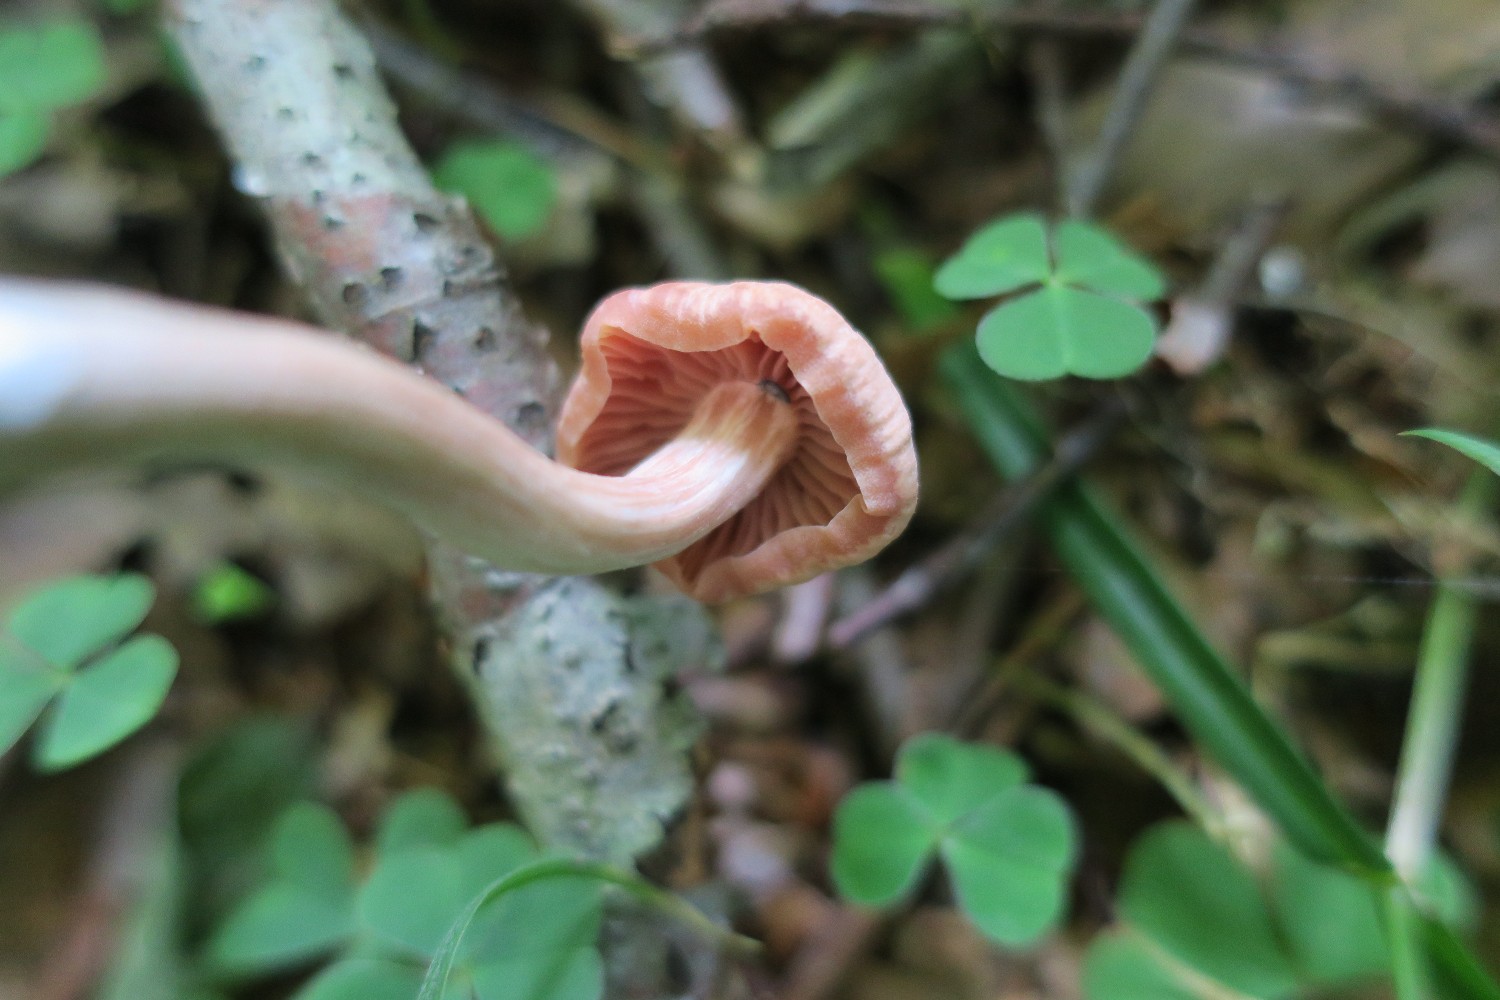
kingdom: Fungi
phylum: Basidiomycota
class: Agaricomycetes
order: Agaricales
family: Hydnangiaceae
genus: Laccaria
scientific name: Laccaria laccata
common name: rød ametysthat
